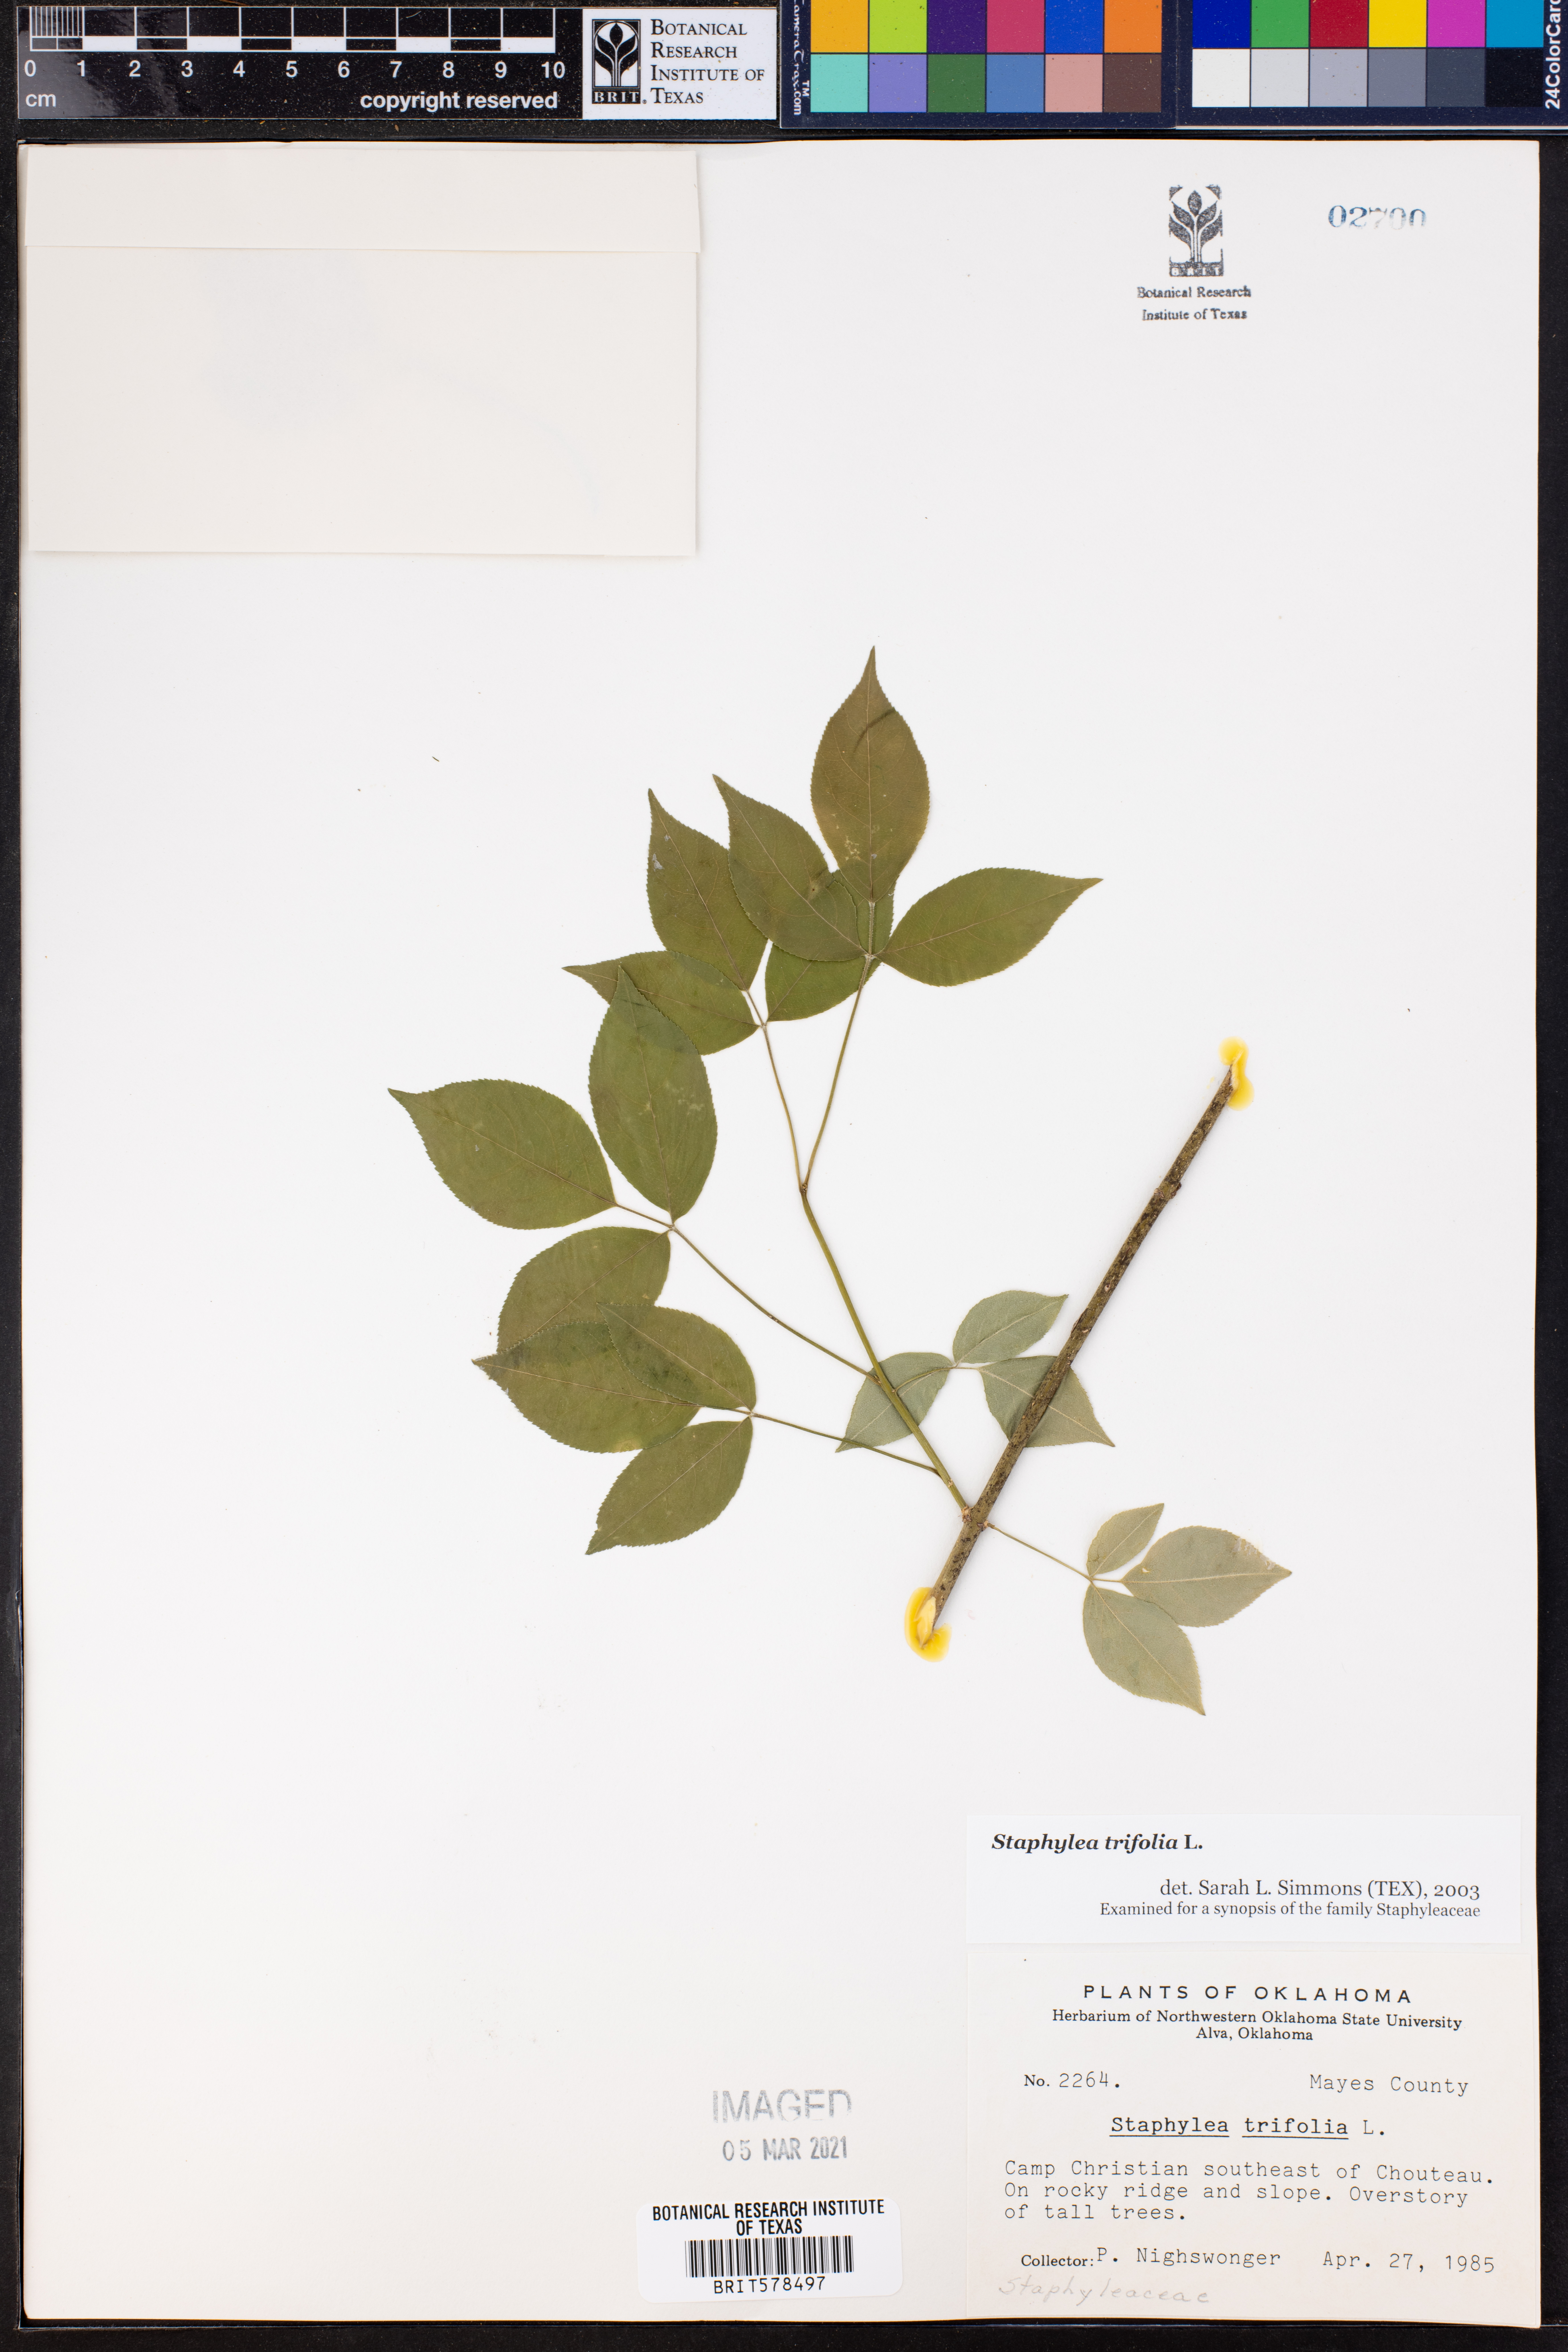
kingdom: Plantae
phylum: Tracheophyta
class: Magnoliopsida
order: Crossosomatales
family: Staphyleaceae
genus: Staphylea
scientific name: Staphylea trifolia
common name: American bladdernut
